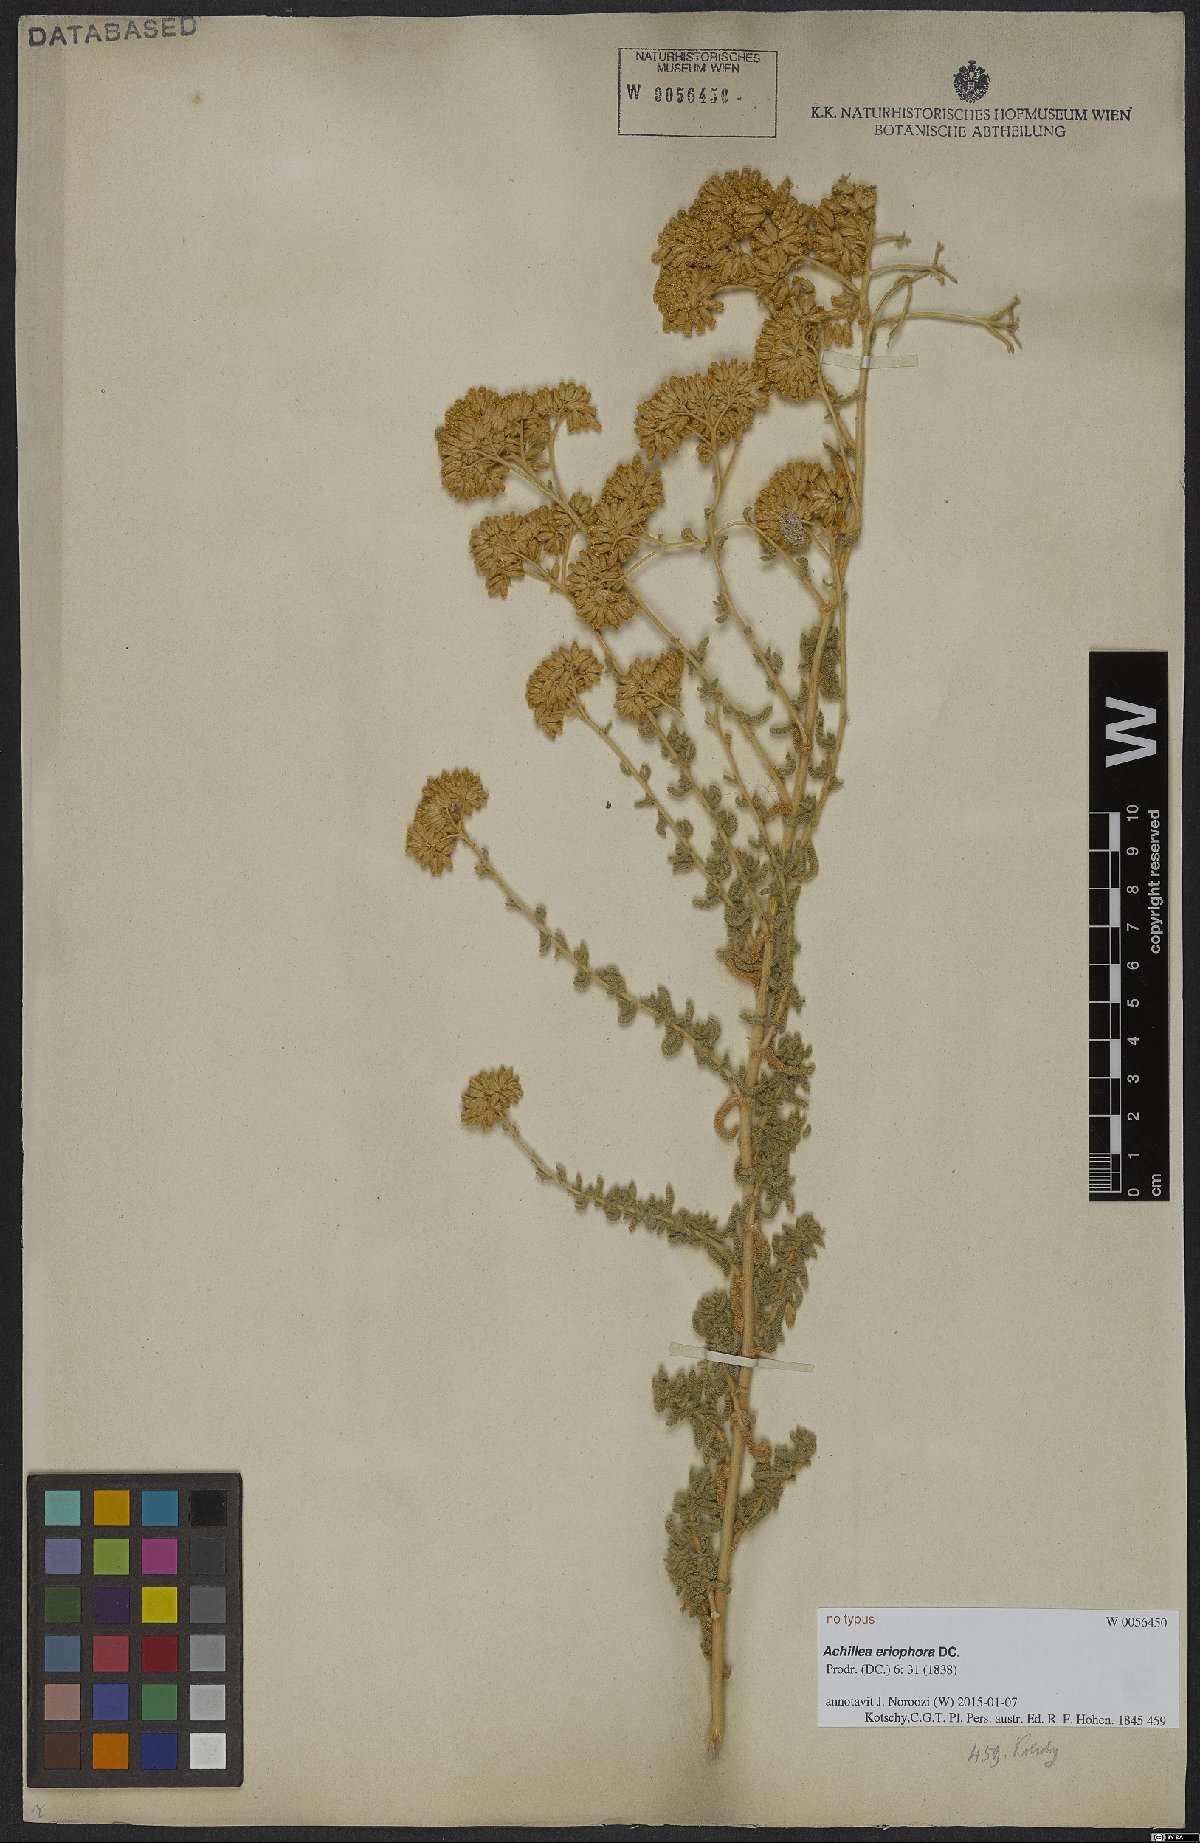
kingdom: Plantae
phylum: Tracheophyta
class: Magnoliopsida
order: Asterales
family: Asteraceae
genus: Achillea
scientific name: Achillea eriophora
